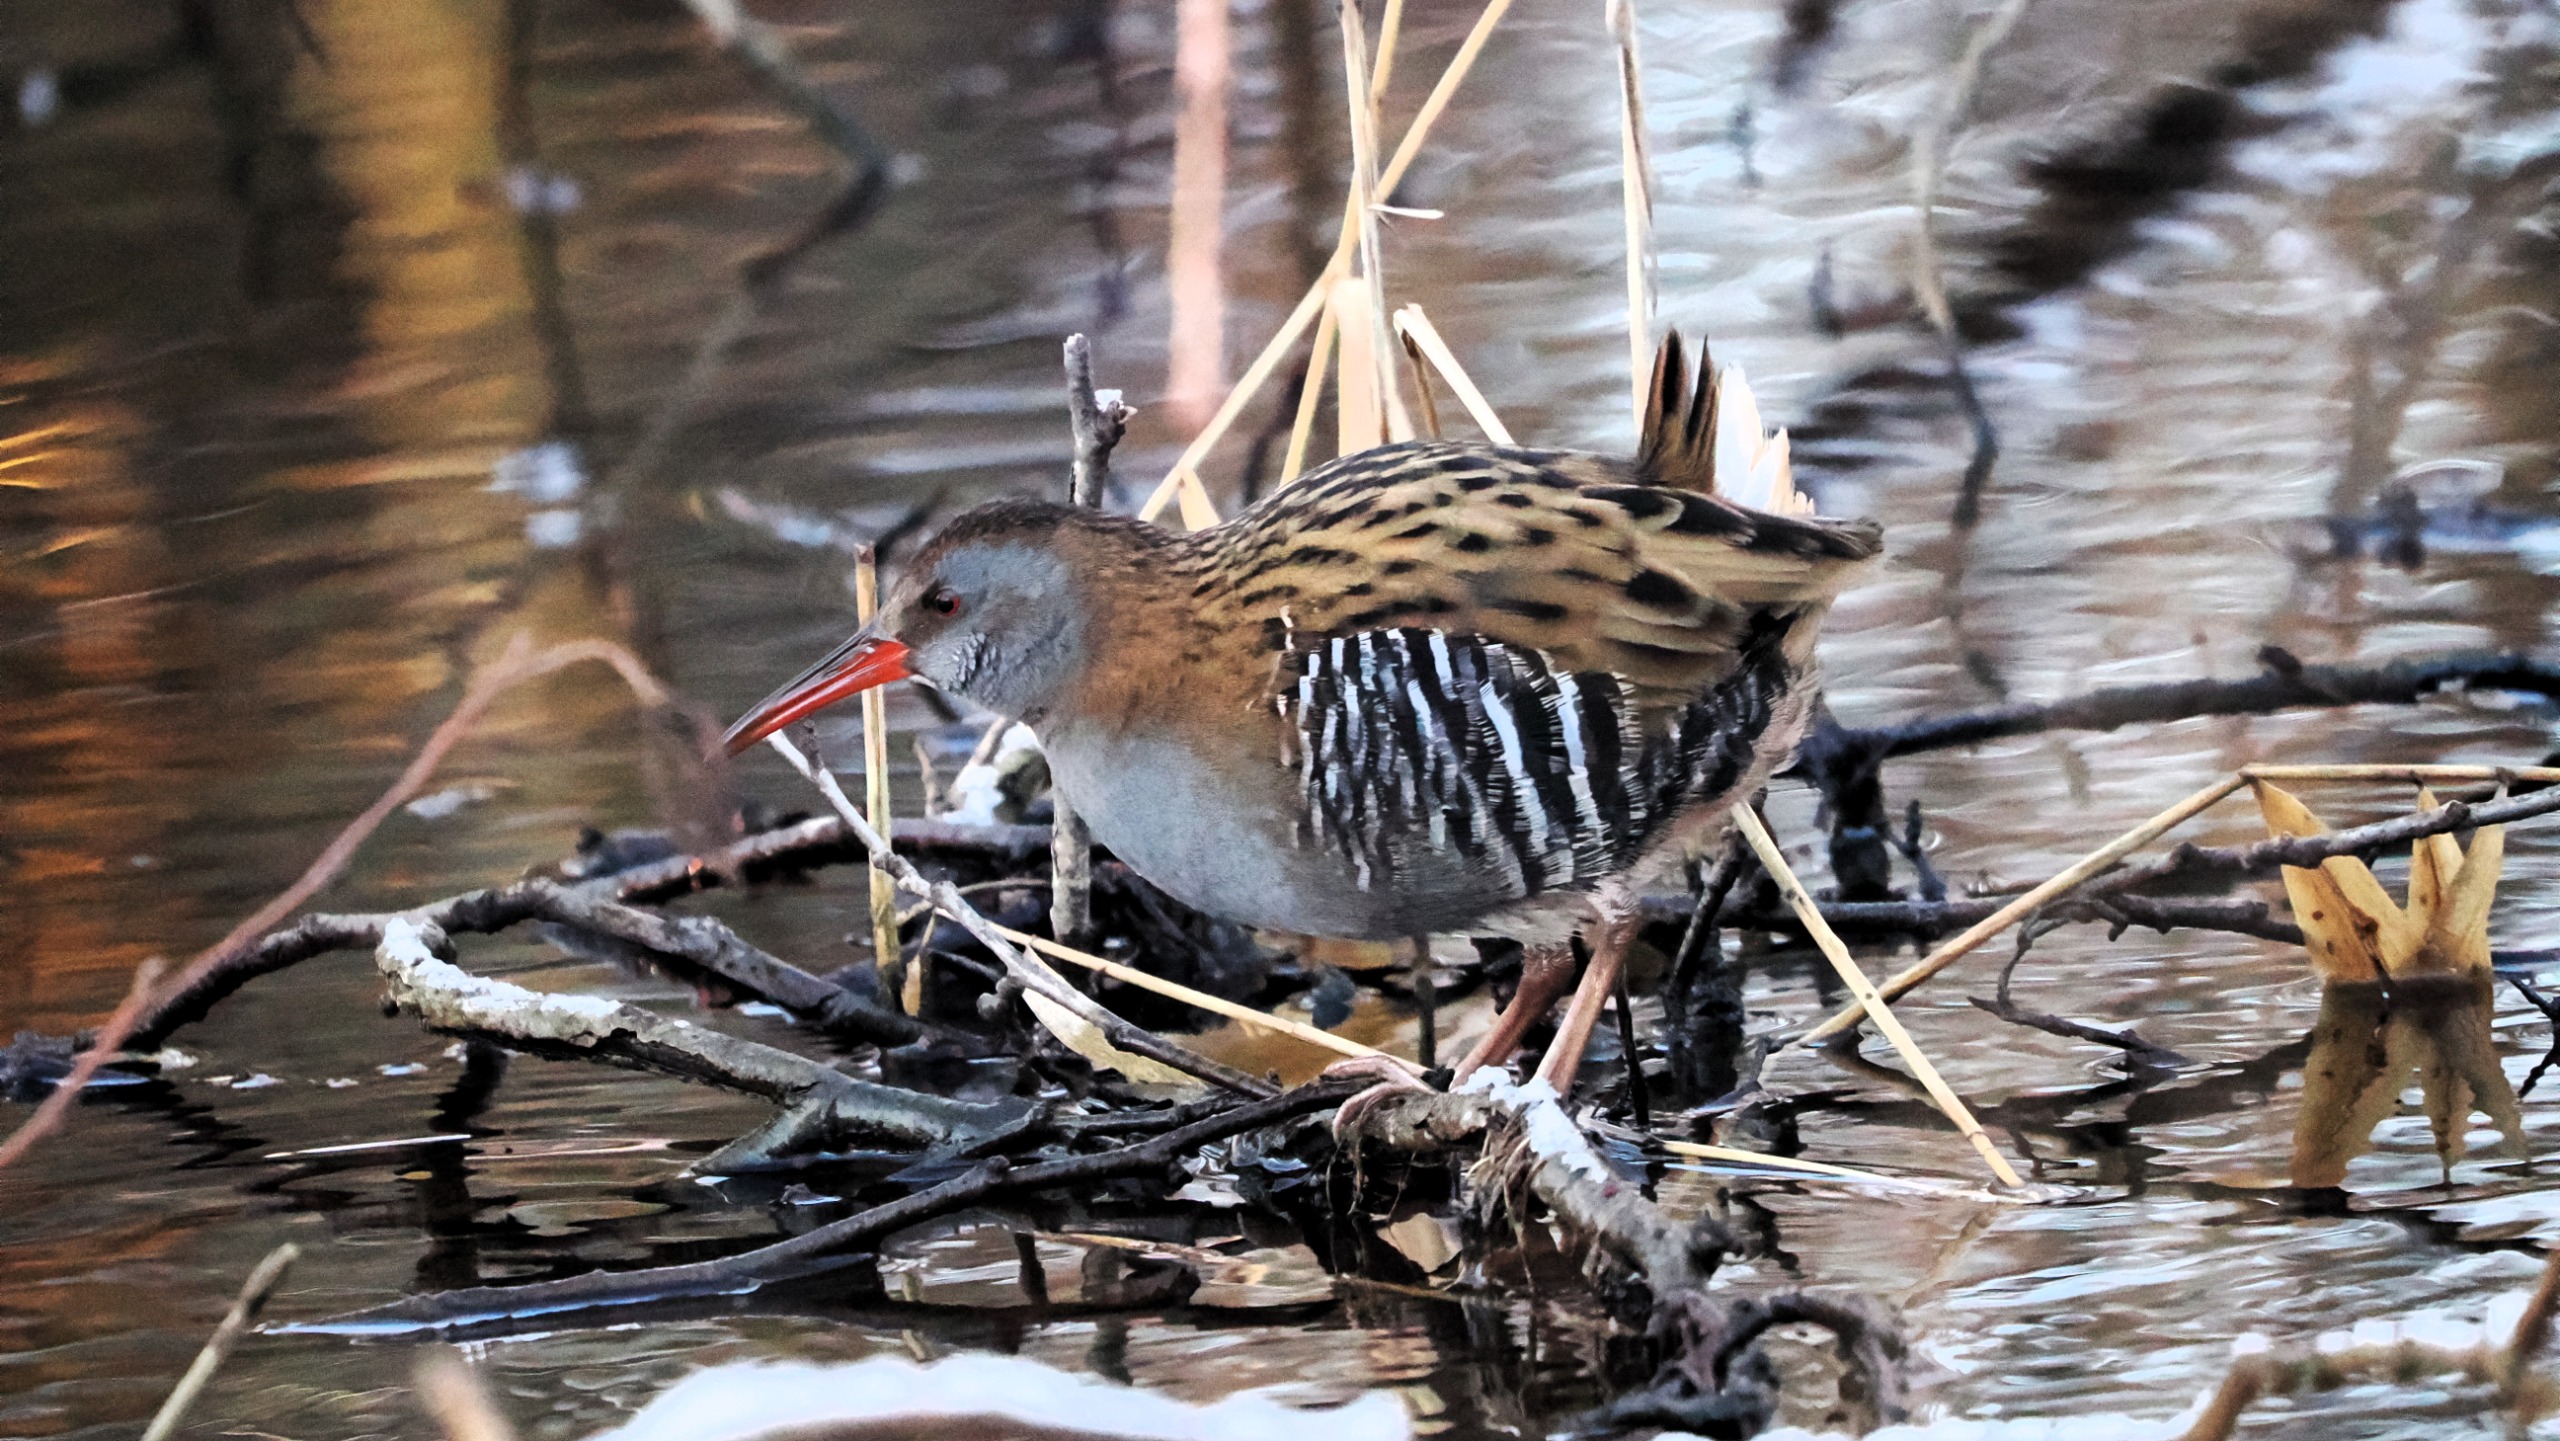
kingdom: Animalia
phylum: Chordata
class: Aves
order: Gruiformes
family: Rallidae
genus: Rallus
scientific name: Rallus aquaticus
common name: Vandrikse
